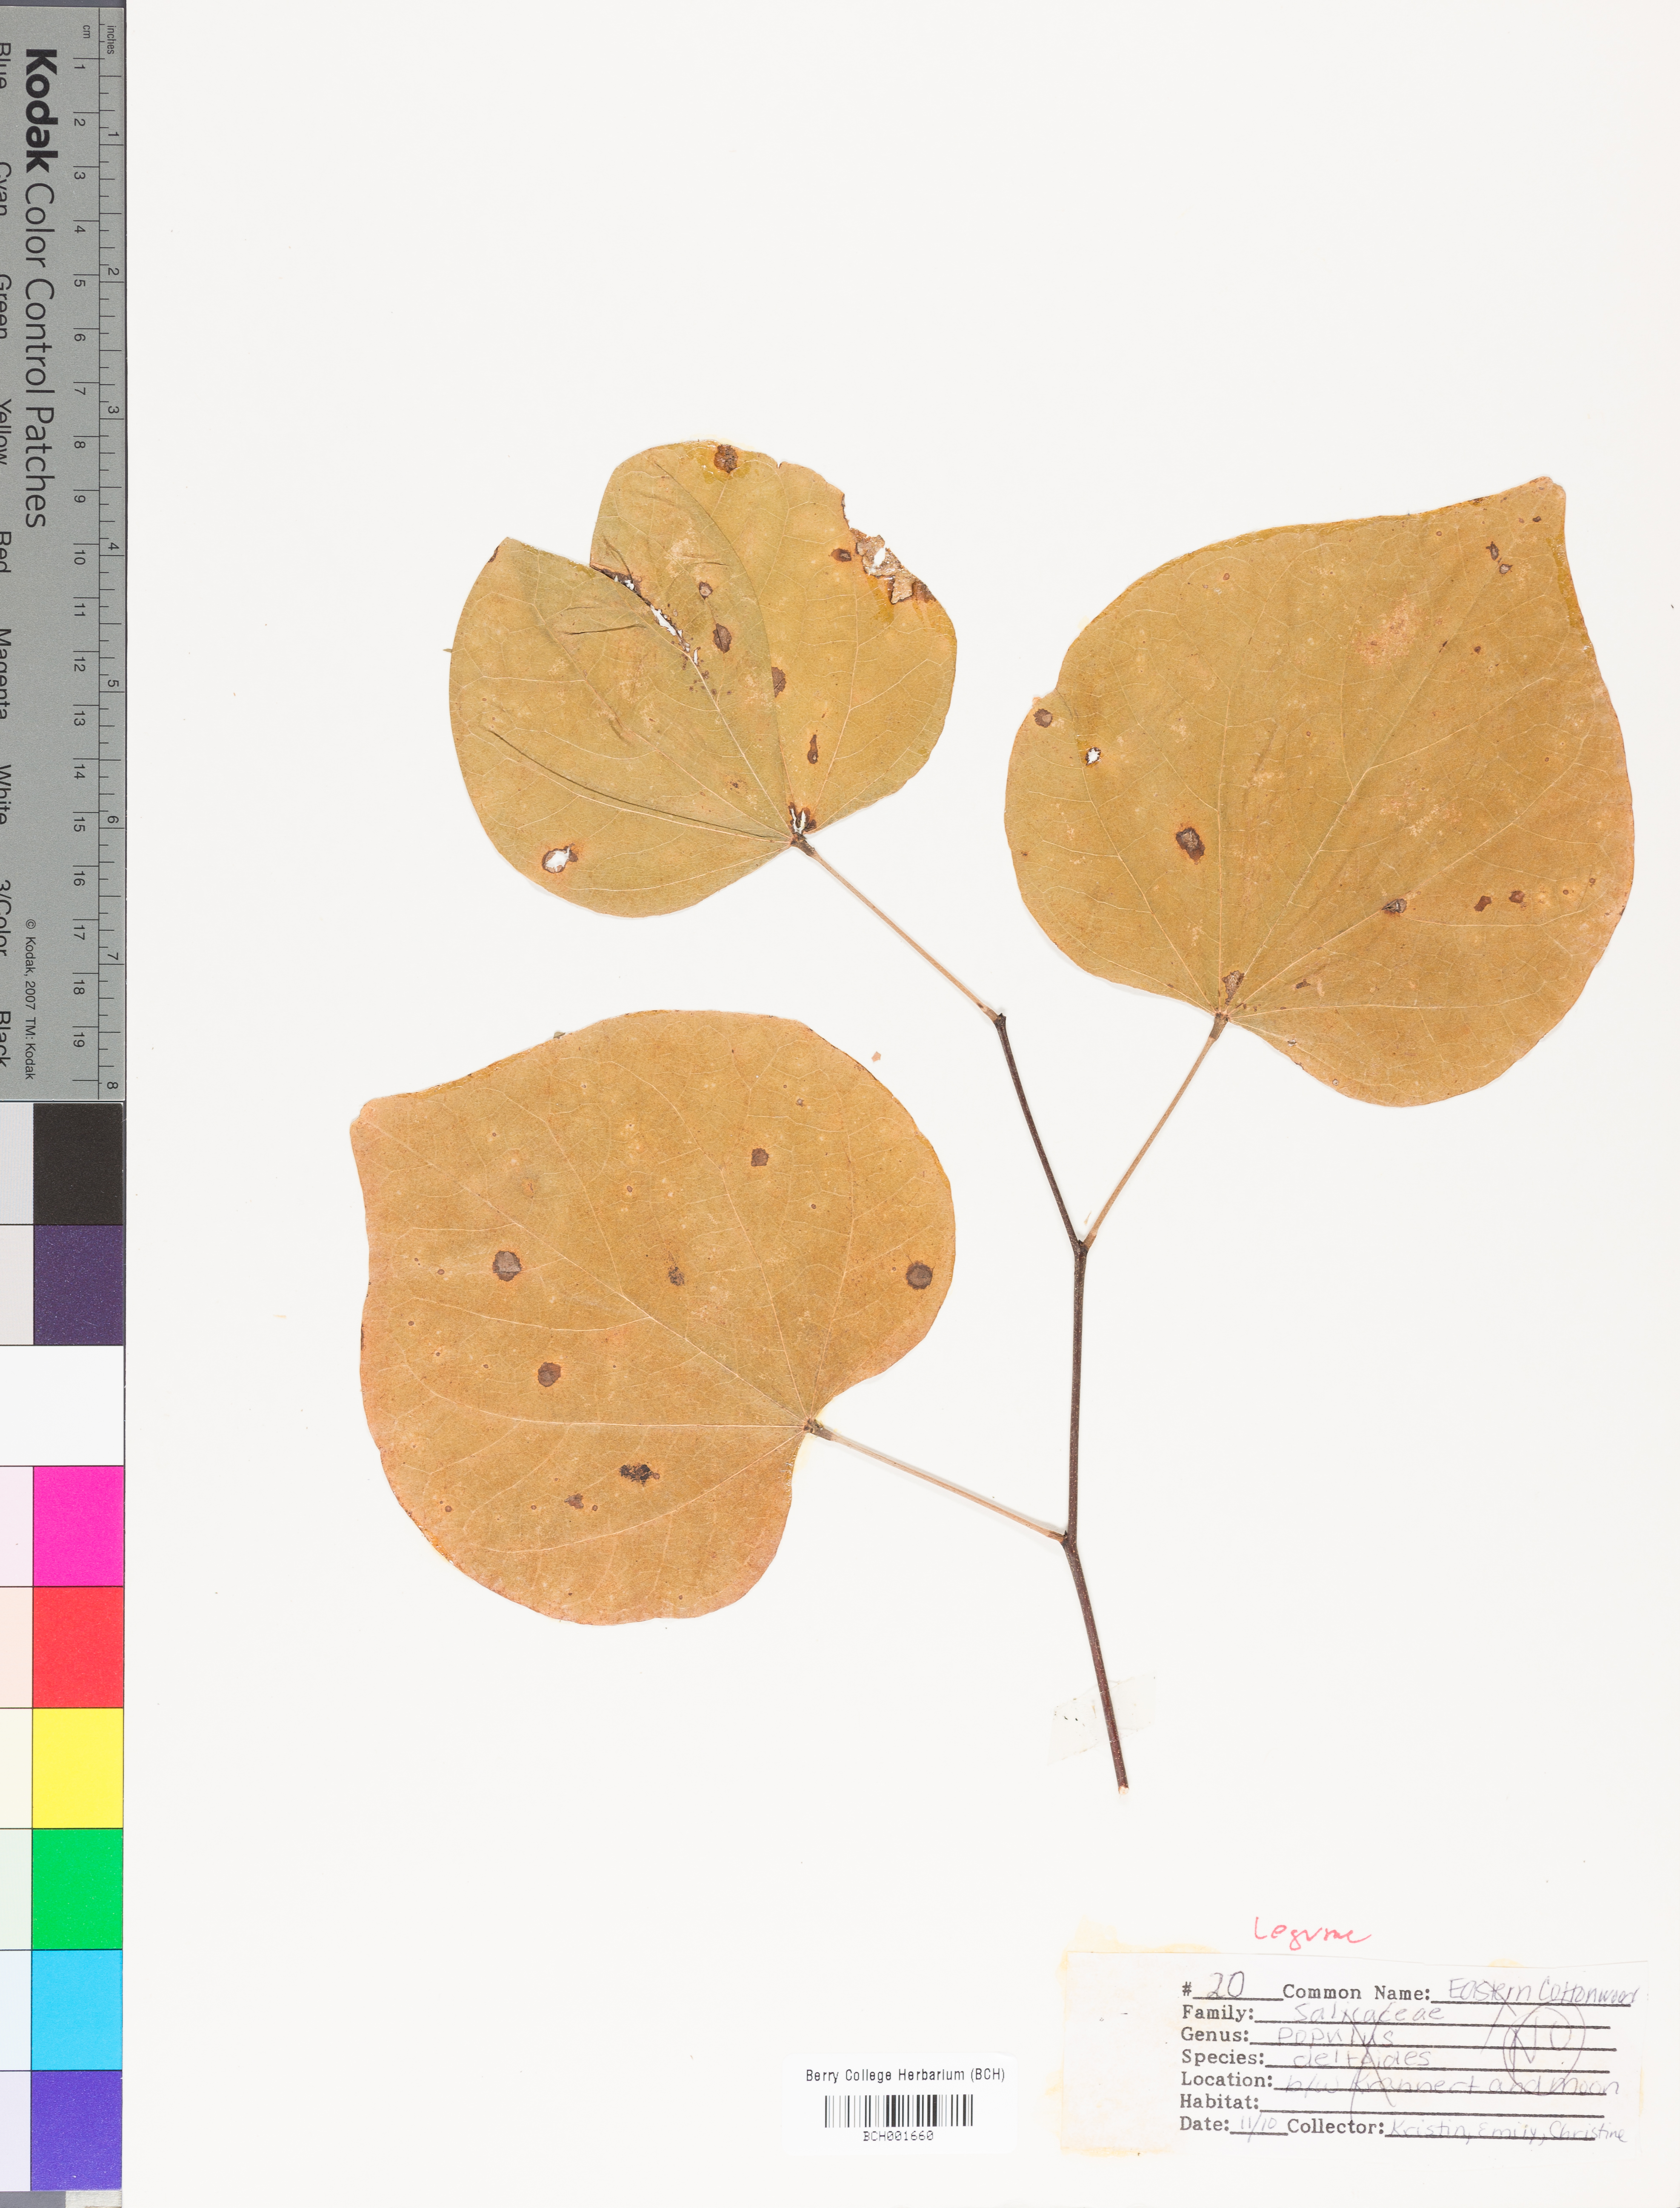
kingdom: Plantae
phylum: Tracheophyta
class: Magnoliopsida
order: Fabales
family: Fabaceae
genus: Cercis
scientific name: Cercis canadensis
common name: Eastern redbud
